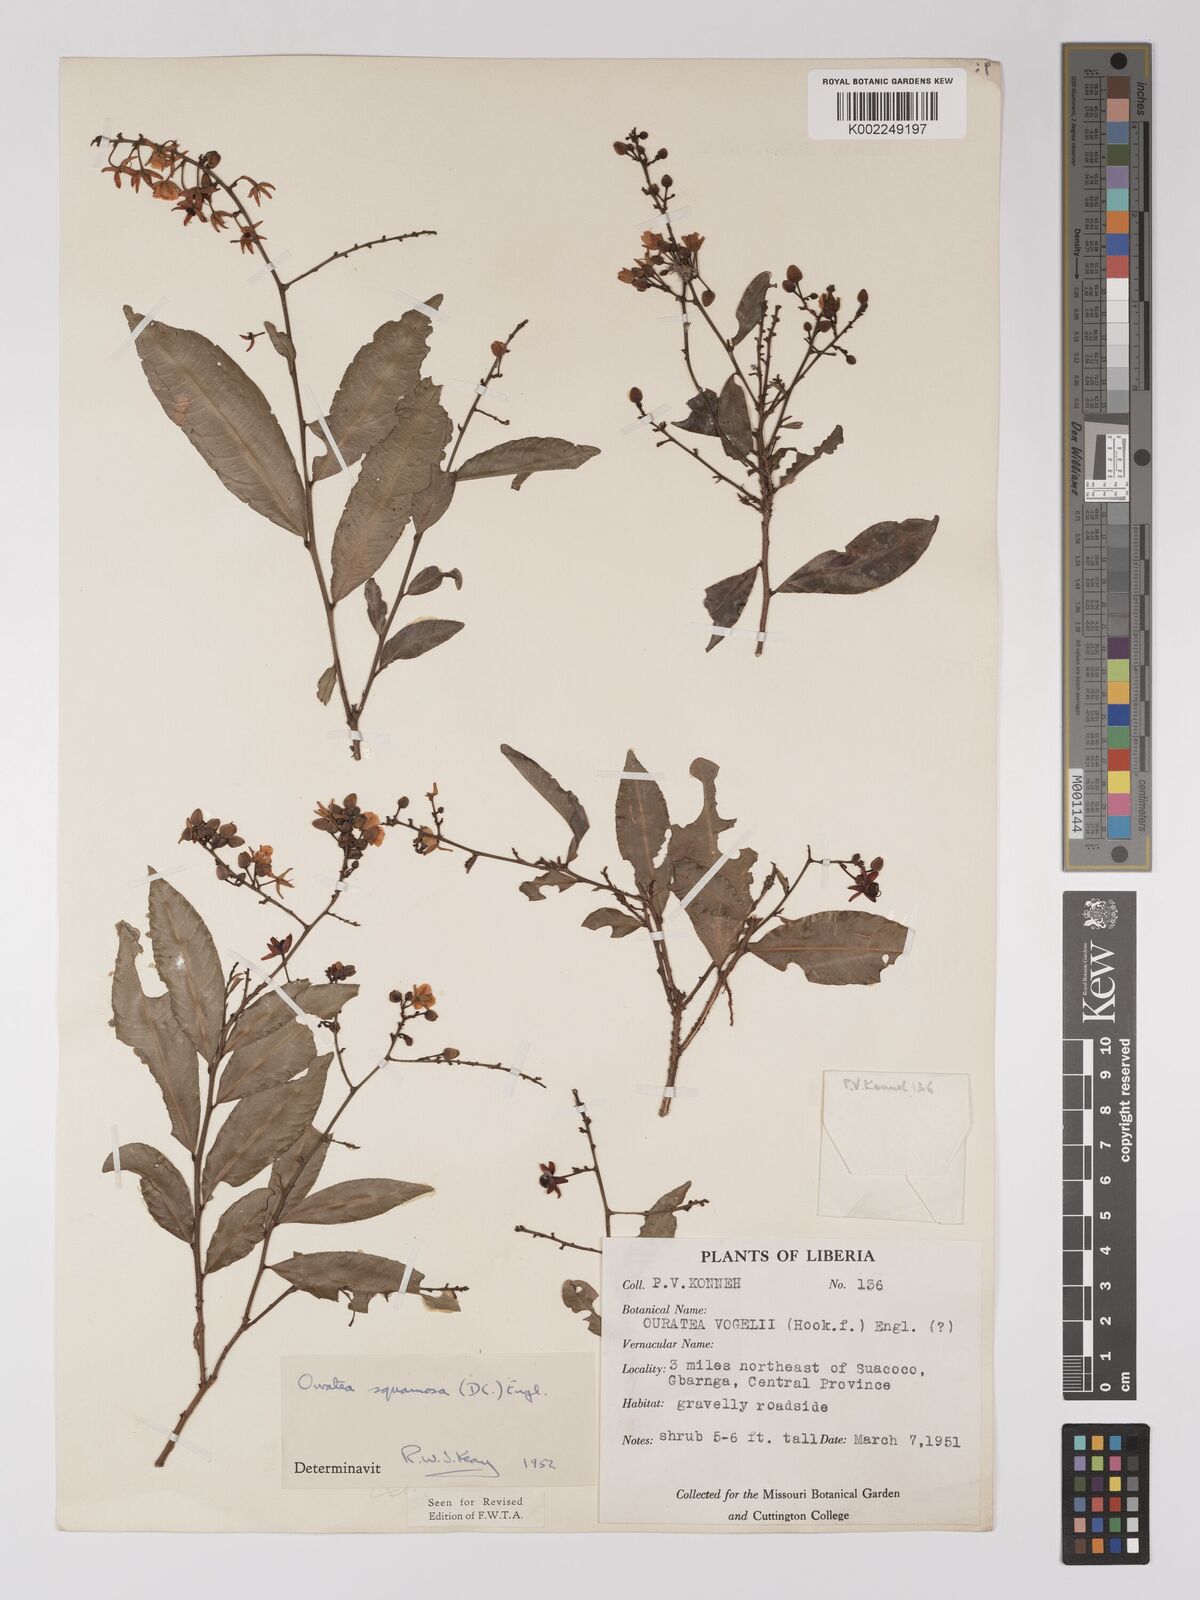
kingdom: Plantae
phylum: Tracheophyta
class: Magnoliopsida
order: Malpighiales
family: Ochnaceae
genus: Campylospermum
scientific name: Campylospermum squamosum
